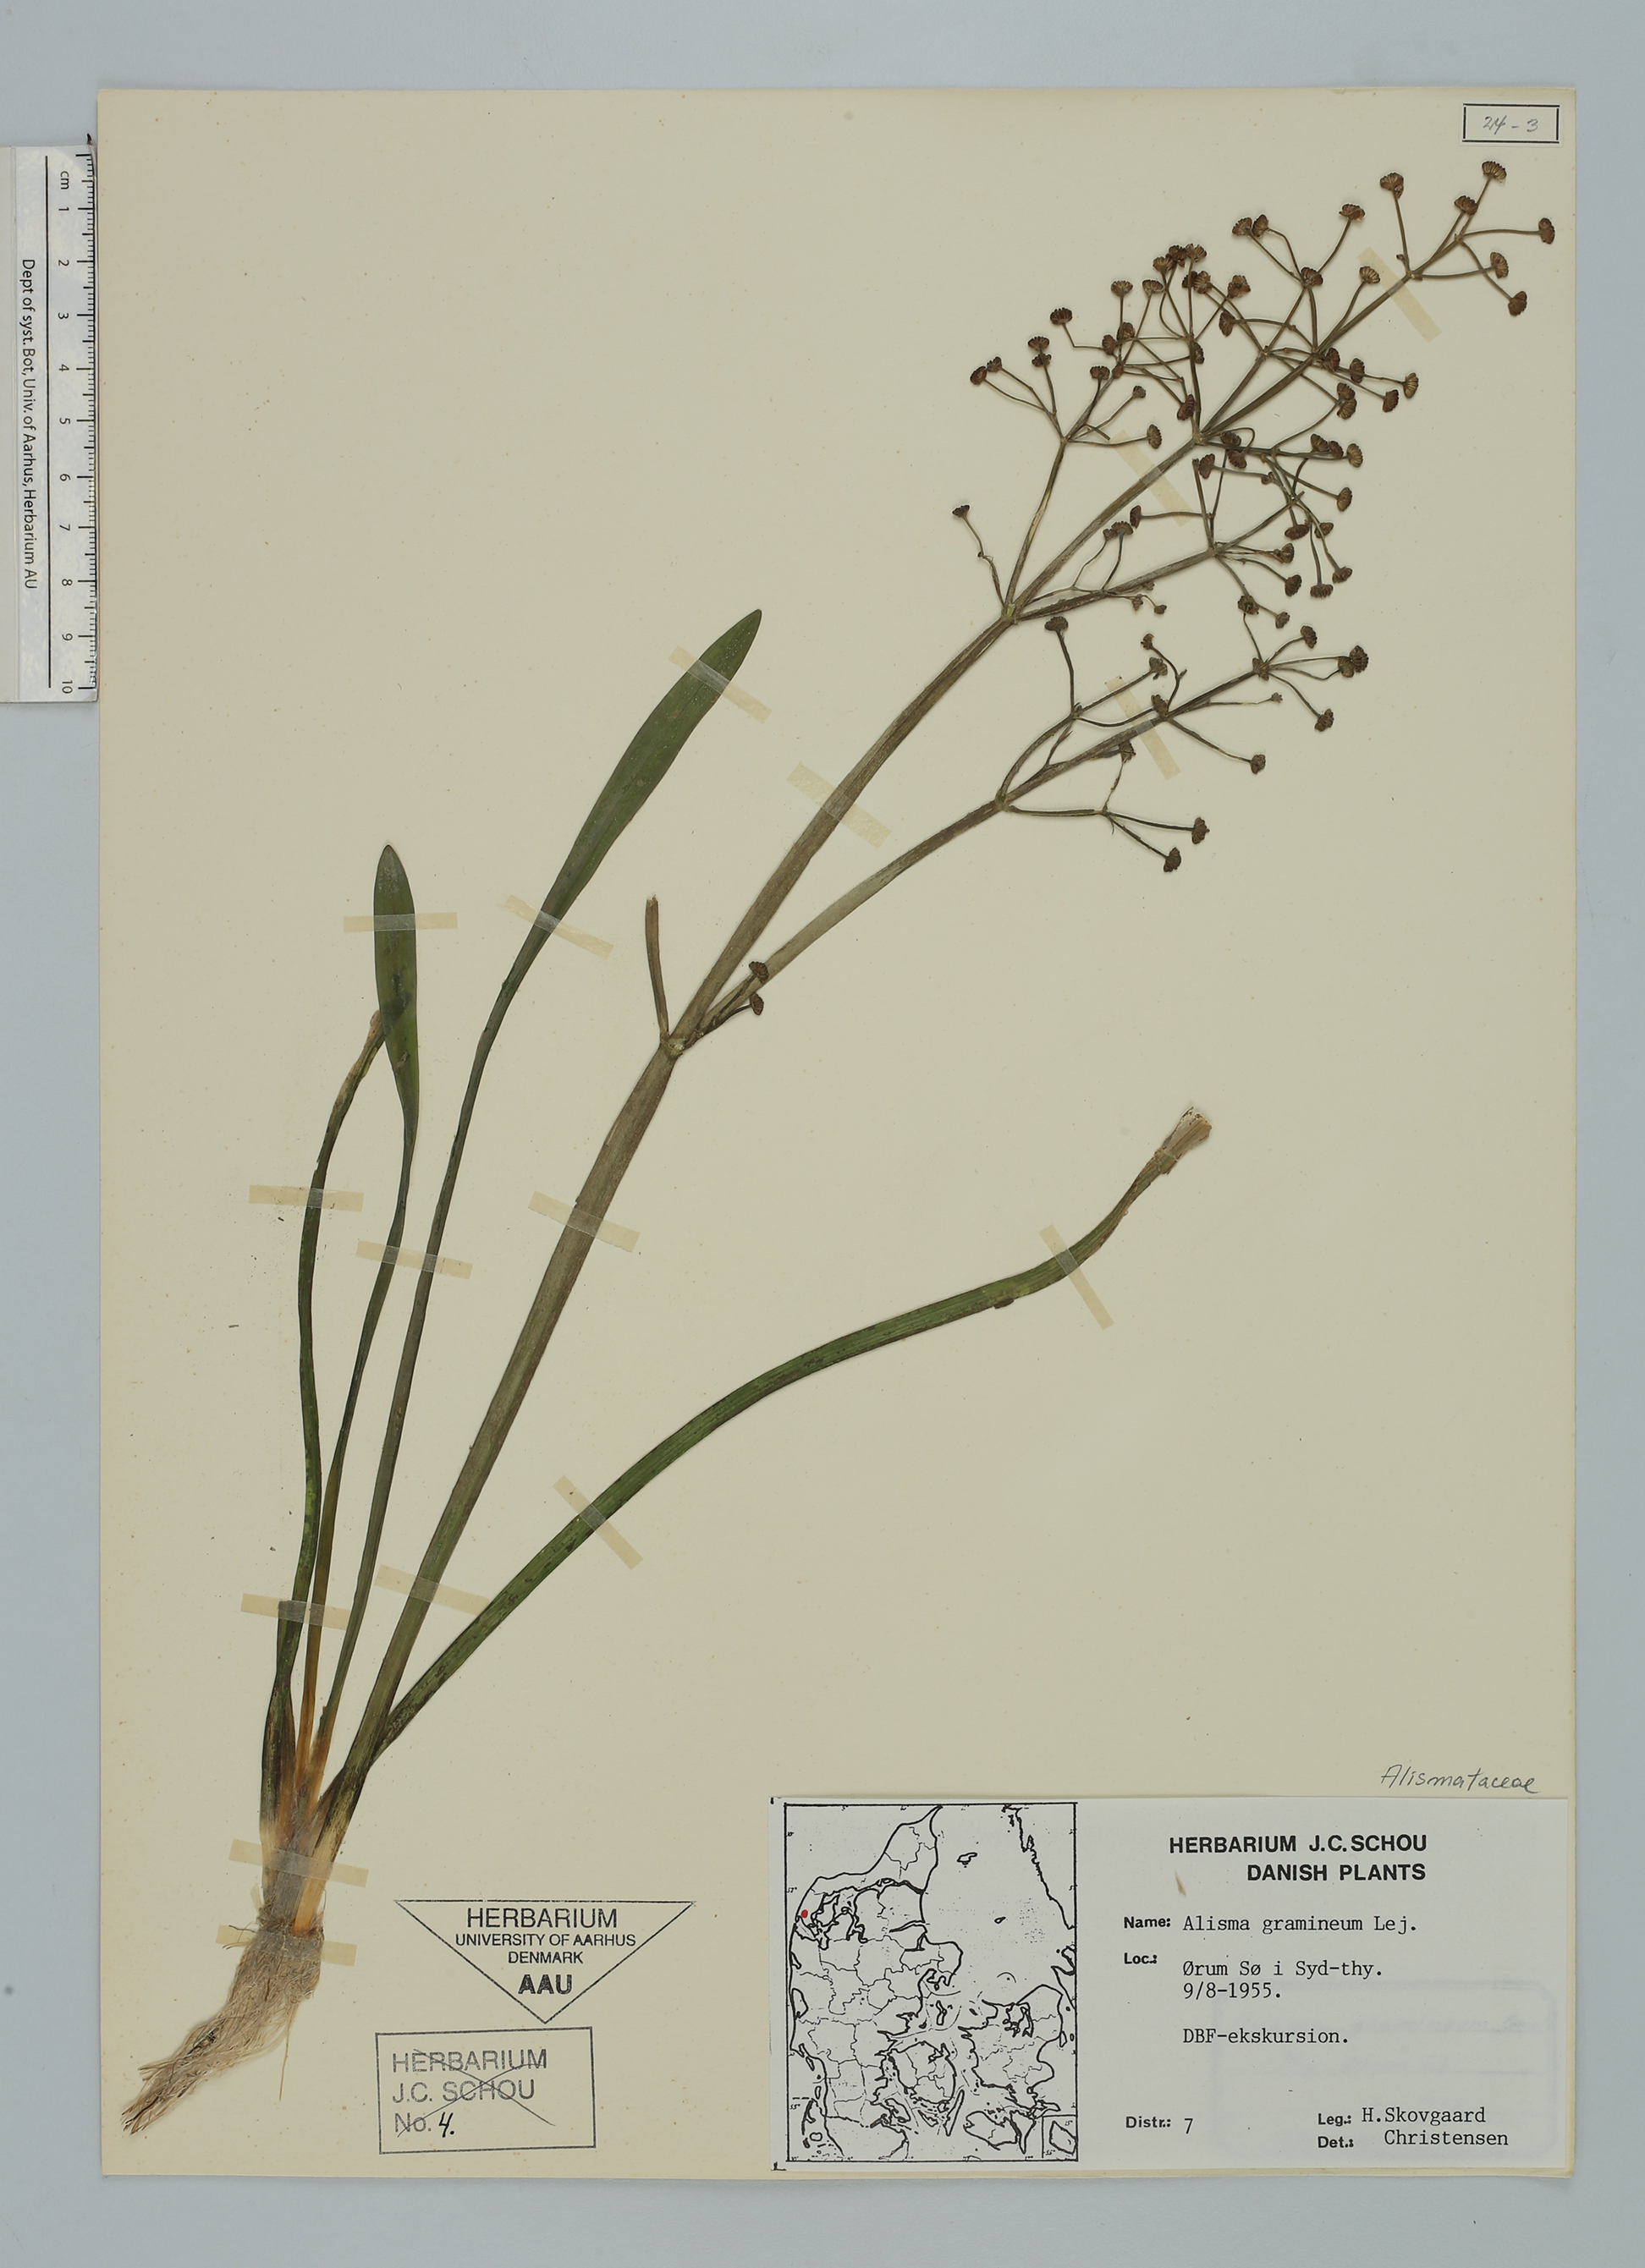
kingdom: Plantae
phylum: Tracheophyta
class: Liliopsida
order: Alismatales
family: Alismataceae
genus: Alisma
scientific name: Alisma gramineum
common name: Ribbon-leaved water-plantain
